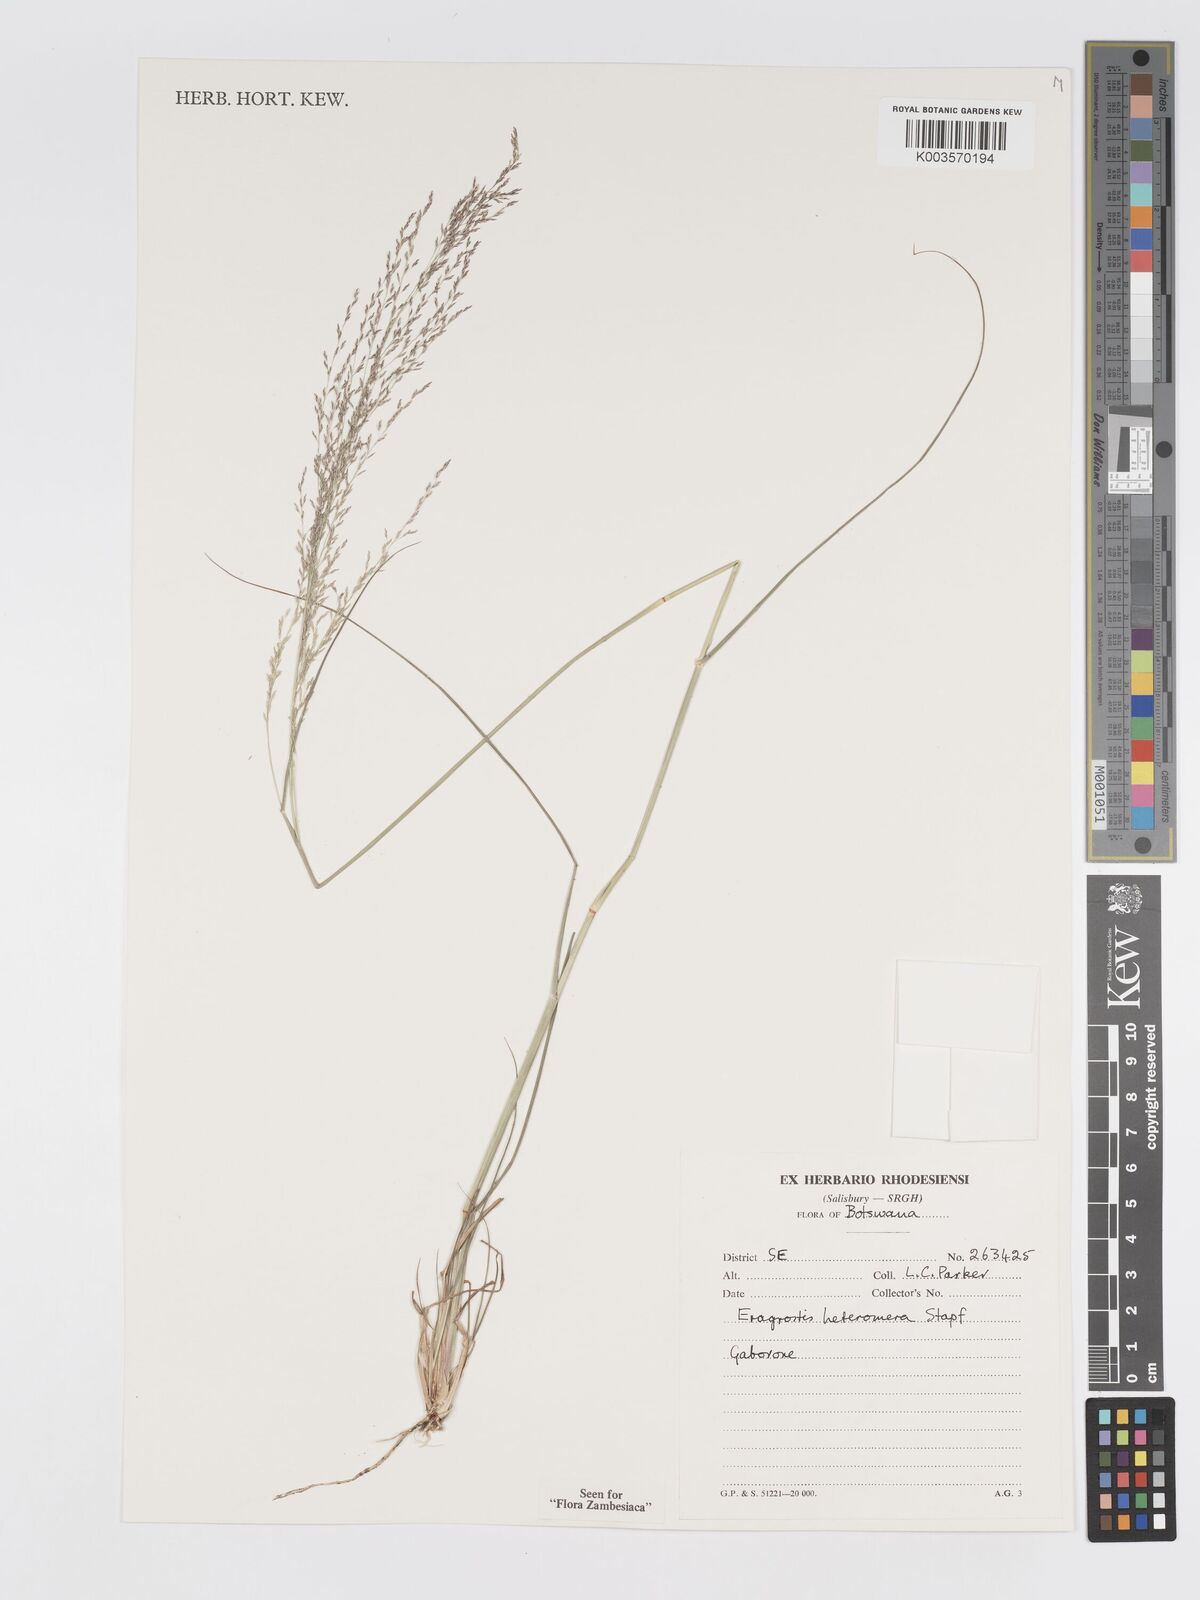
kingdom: Plantae
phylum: Tracheophyta
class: Liliopsida
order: Poales
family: Poaceae
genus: Eragrostis
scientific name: Eragrostis heteromera
